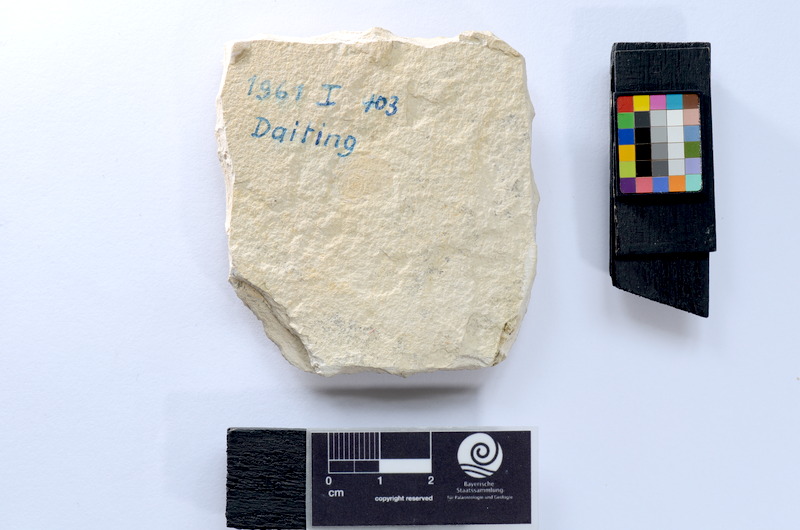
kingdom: Animalia
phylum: Chordata
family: Ascalaboidae
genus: Tharsis
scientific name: Tharsis dubius
